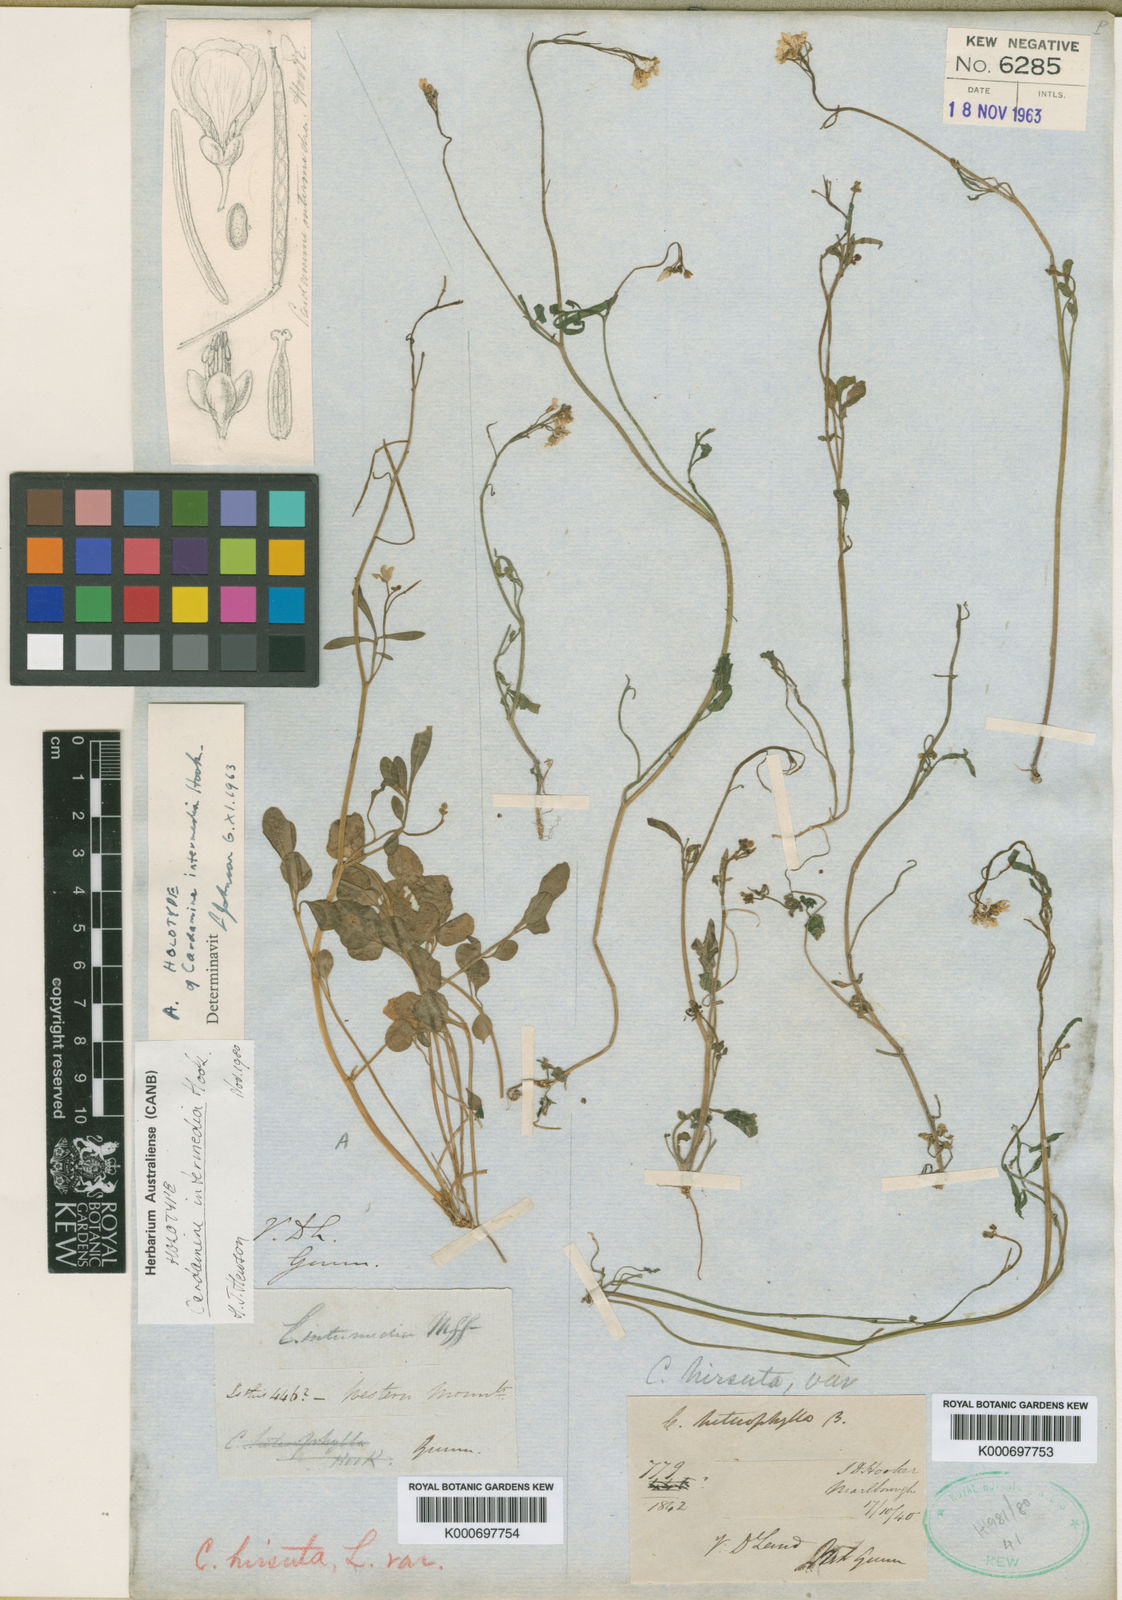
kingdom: Plantae
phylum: Tracheophyta
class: Magnoliopsida
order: Brassicales
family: Brassicaceae
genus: Cardamine
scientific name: Cardamine lilacina
